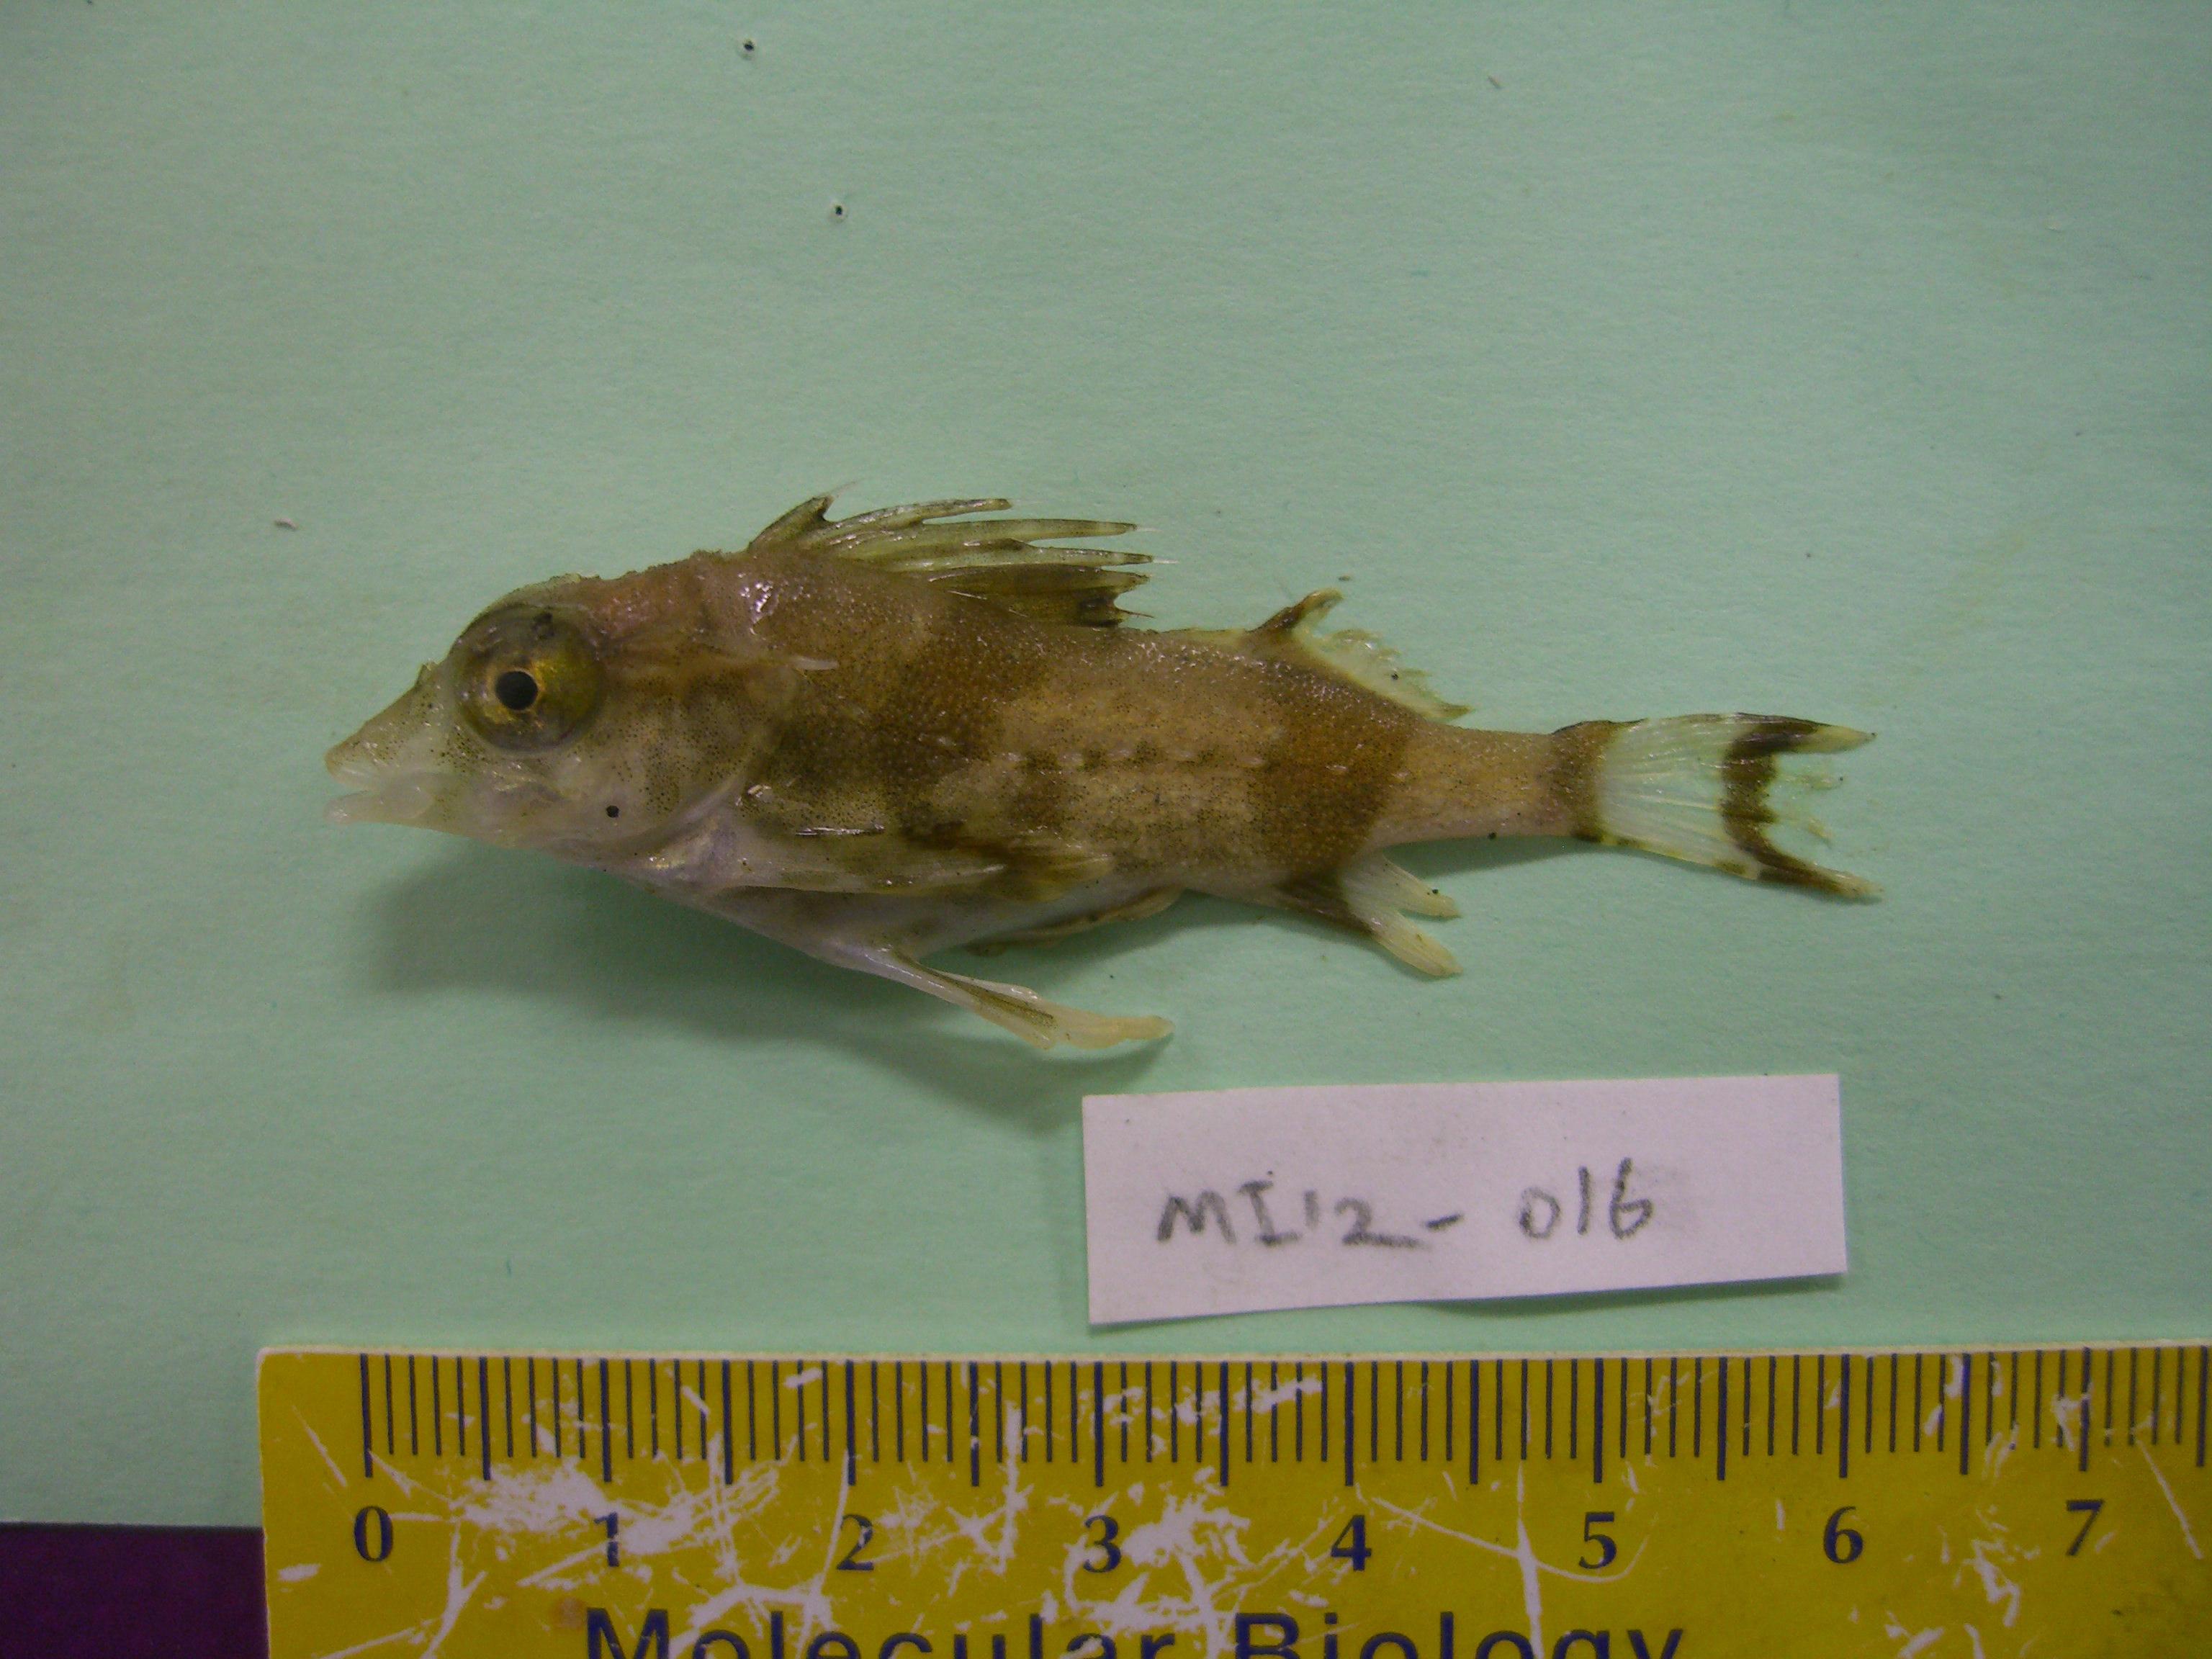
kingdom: Animalia
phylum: Chordata
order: Scorpaeniformes
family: Congiopodidae
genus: Zanclorhynchus
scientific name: Zanclorhynchus spinifer
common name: Spiny horsefish
